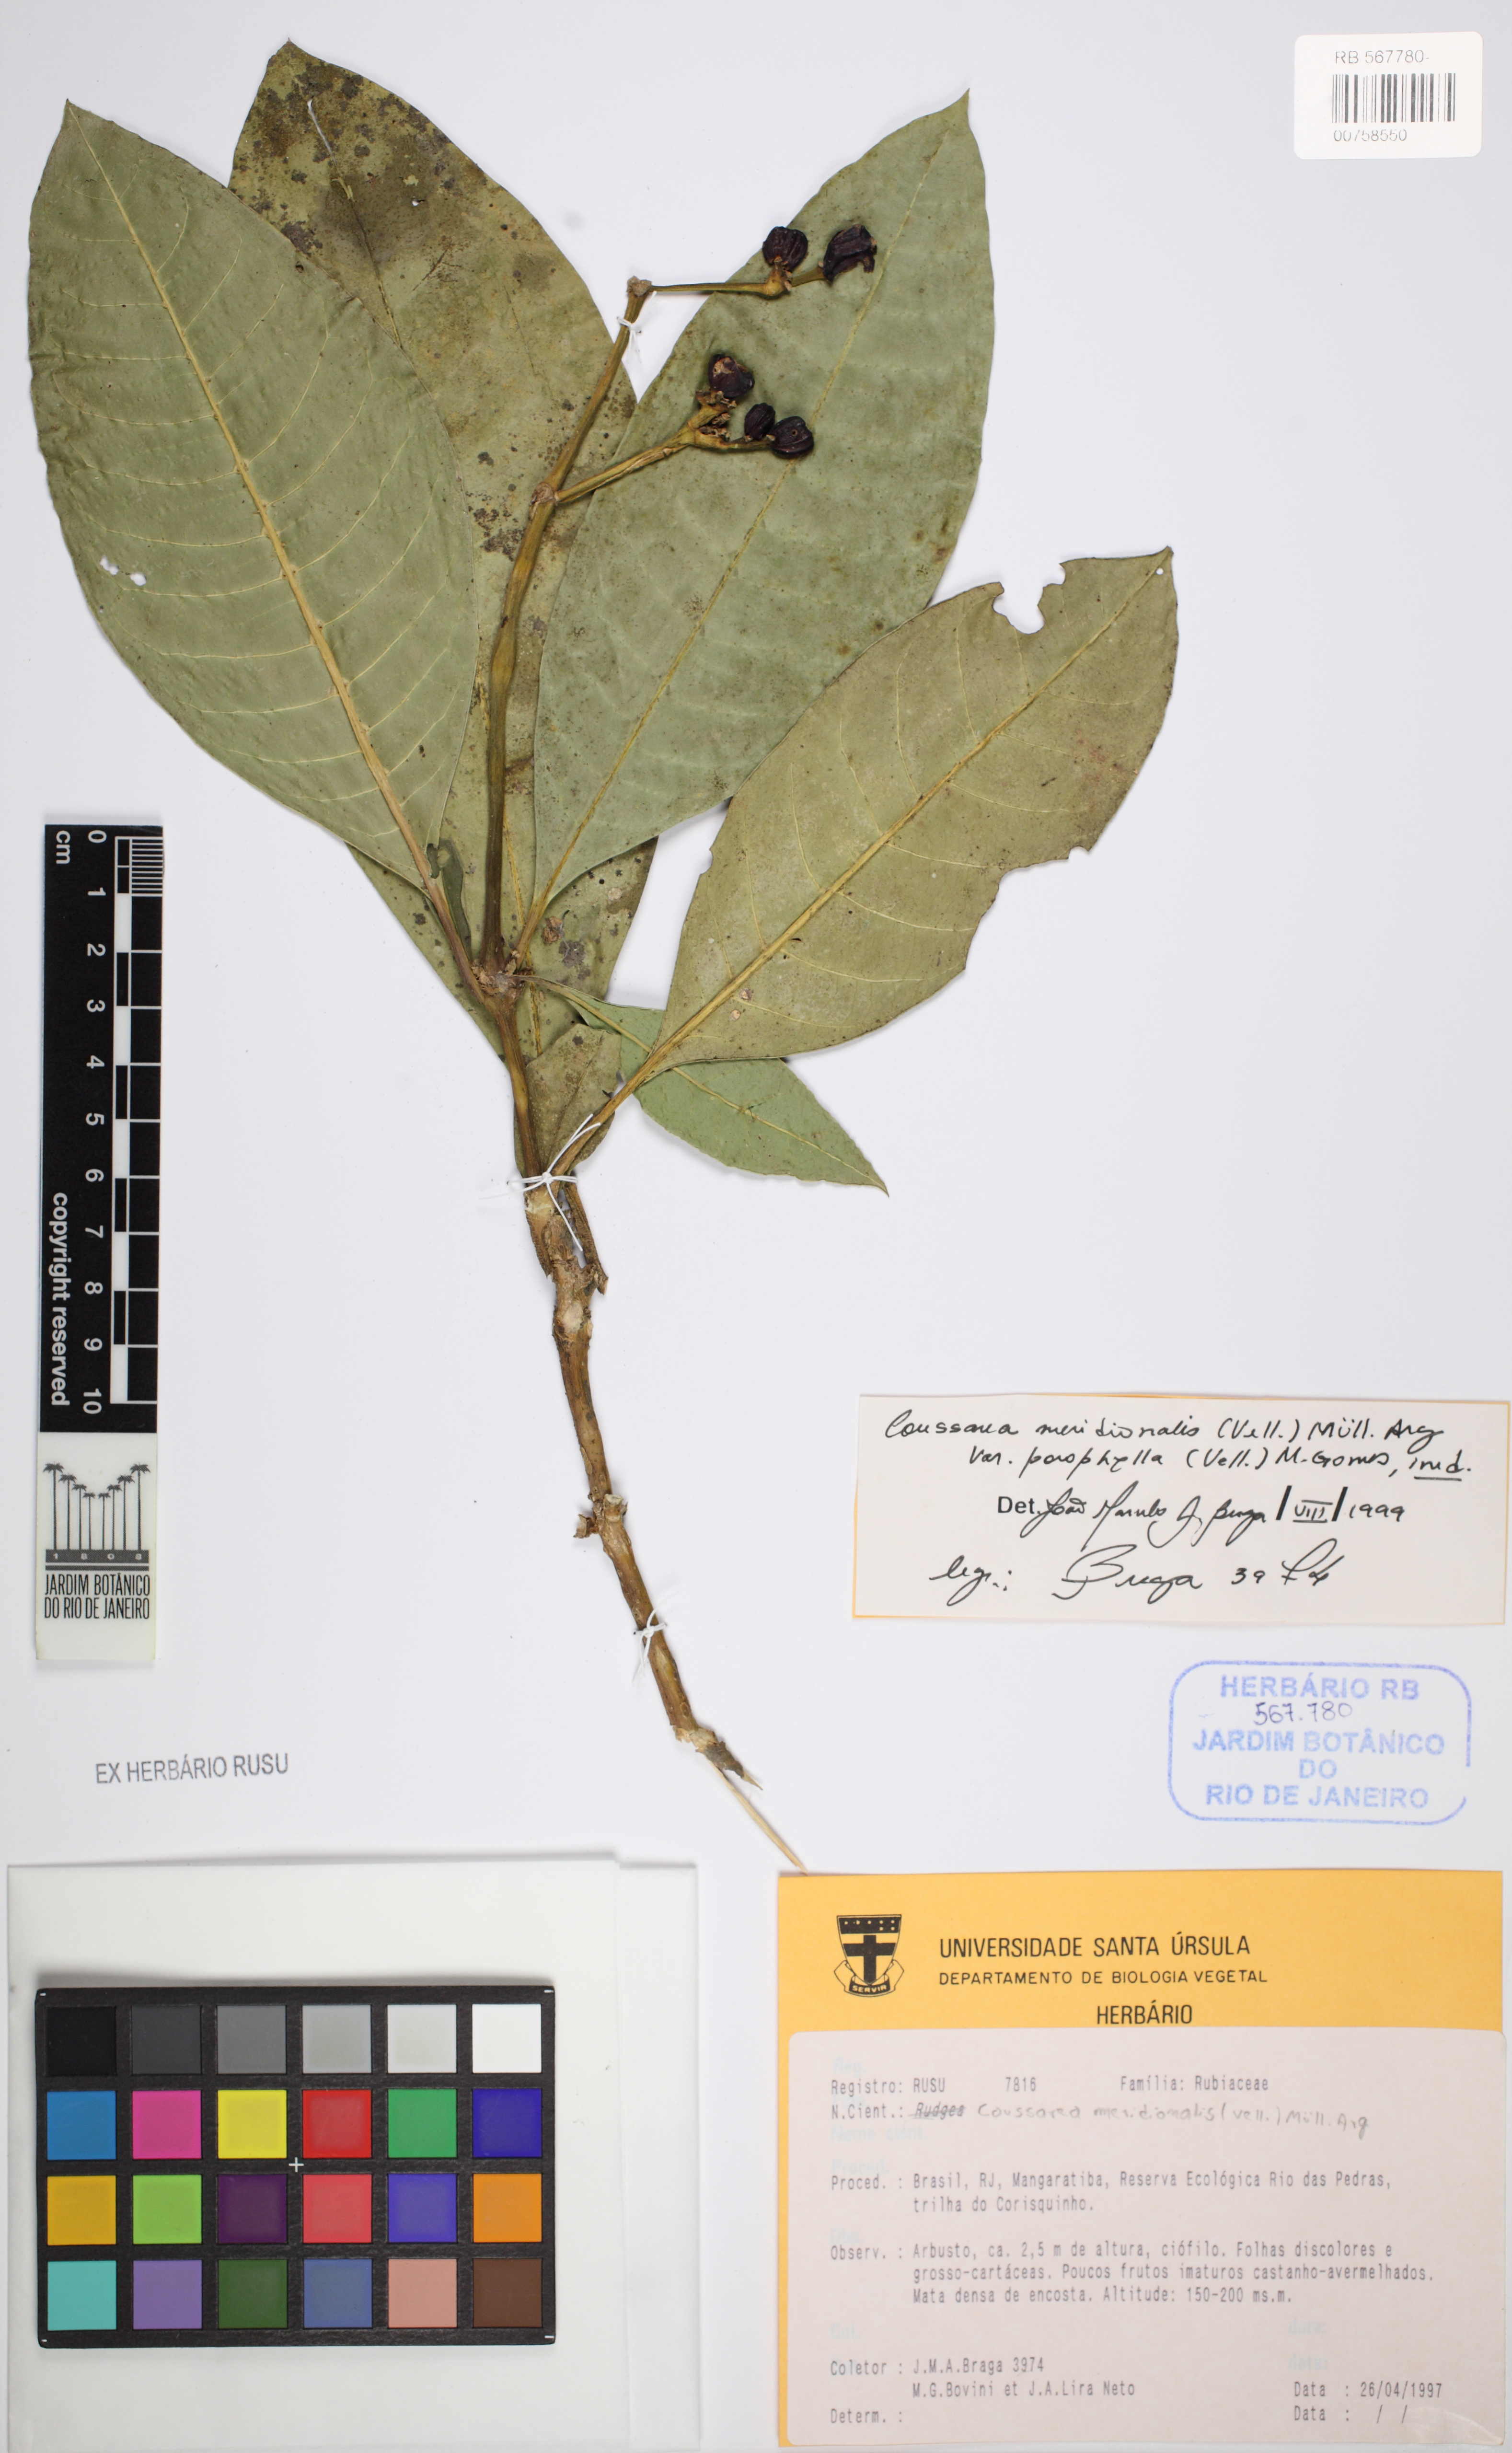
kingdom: Plantae
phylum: Tracheophyta
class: Magnoliopsida
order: Gentianales
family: Rubiaceae
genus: Coussarea
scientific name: Coussarea meridionalis
